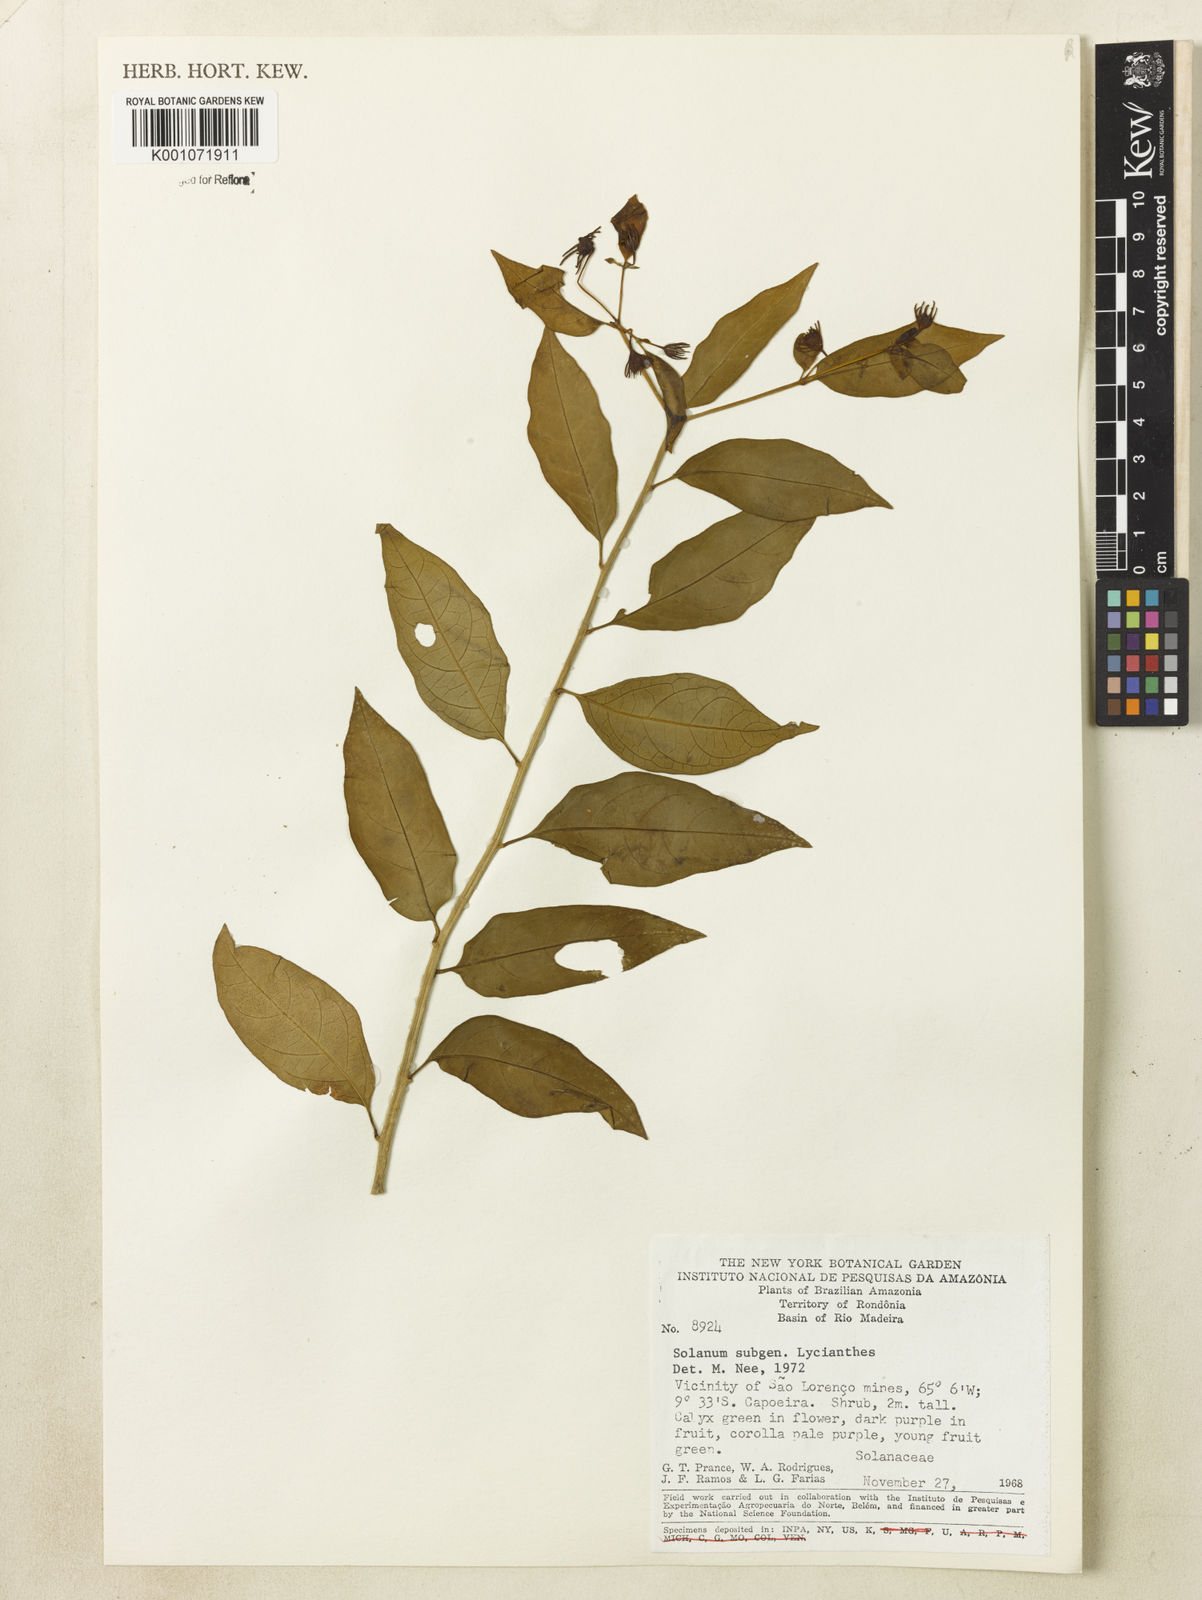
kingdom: Plantae
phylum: Tracheophyta
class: Magnoliopsida
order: Solanales
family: Solanaceae
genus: Lycianthes
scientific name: Lycianthes
